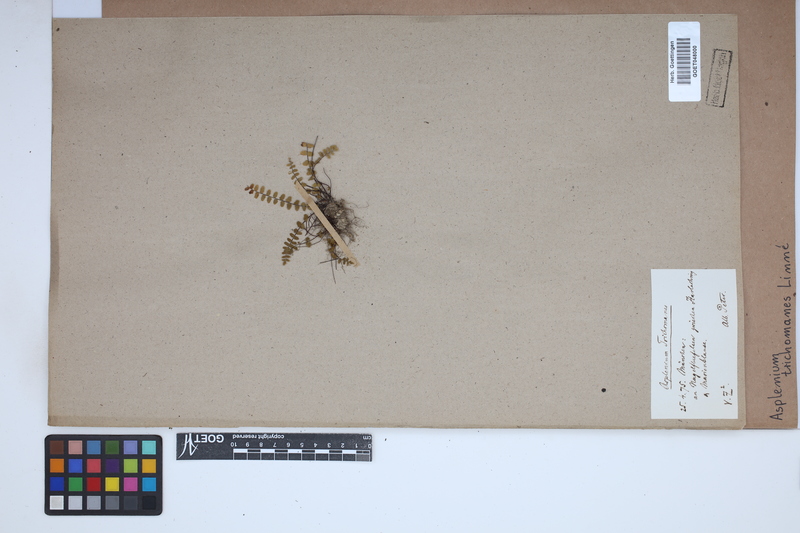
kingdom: Plantae
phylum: Tracheophyta
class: Polypodiopsida
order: Polypodiales
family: Aspleniaceae
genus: Asplenium
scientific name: Asplenium trichomanes
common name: Maidenhair spleenwort
